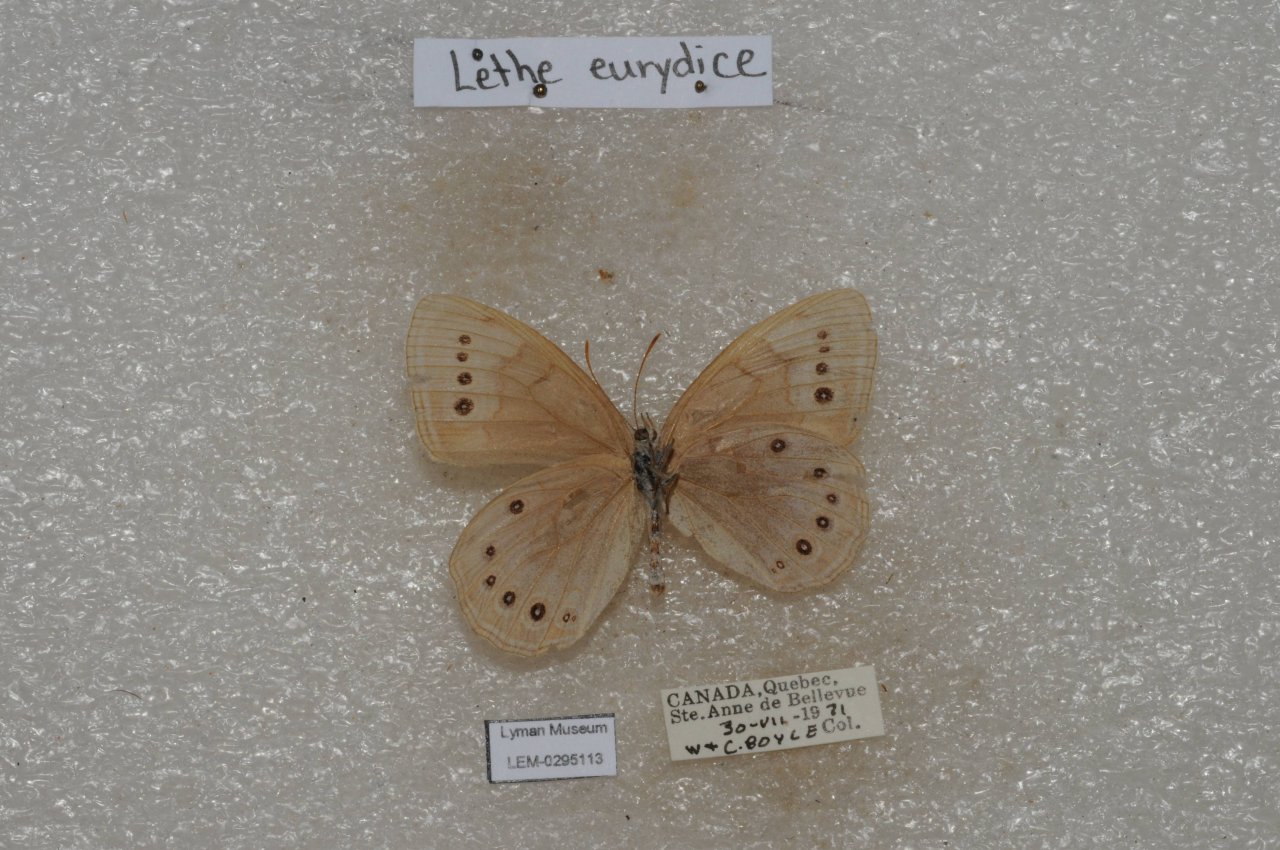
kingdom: Animalia
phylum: Arthropoda
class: Insecta
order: Lepidoptera
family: Nymphalidae
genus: Lethe
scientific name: Lethe eurydice
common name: Eyed Brown
